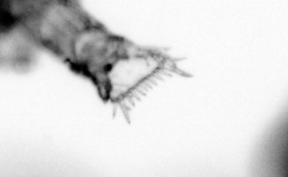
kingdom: Animalia
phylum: Arthropoda
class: Copepoda
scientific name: Copepoda
